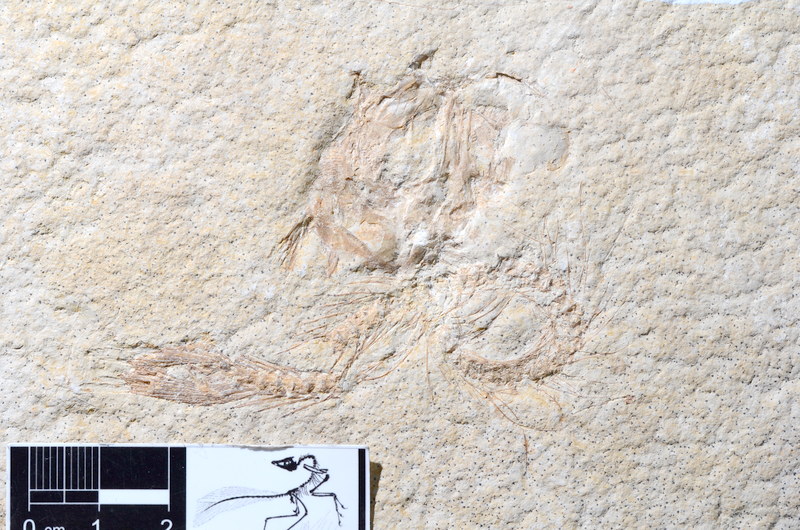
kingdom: Animalia
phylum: Chordata
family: Ascalaboidae
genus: Tharsis
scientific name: Tharsis dubius
